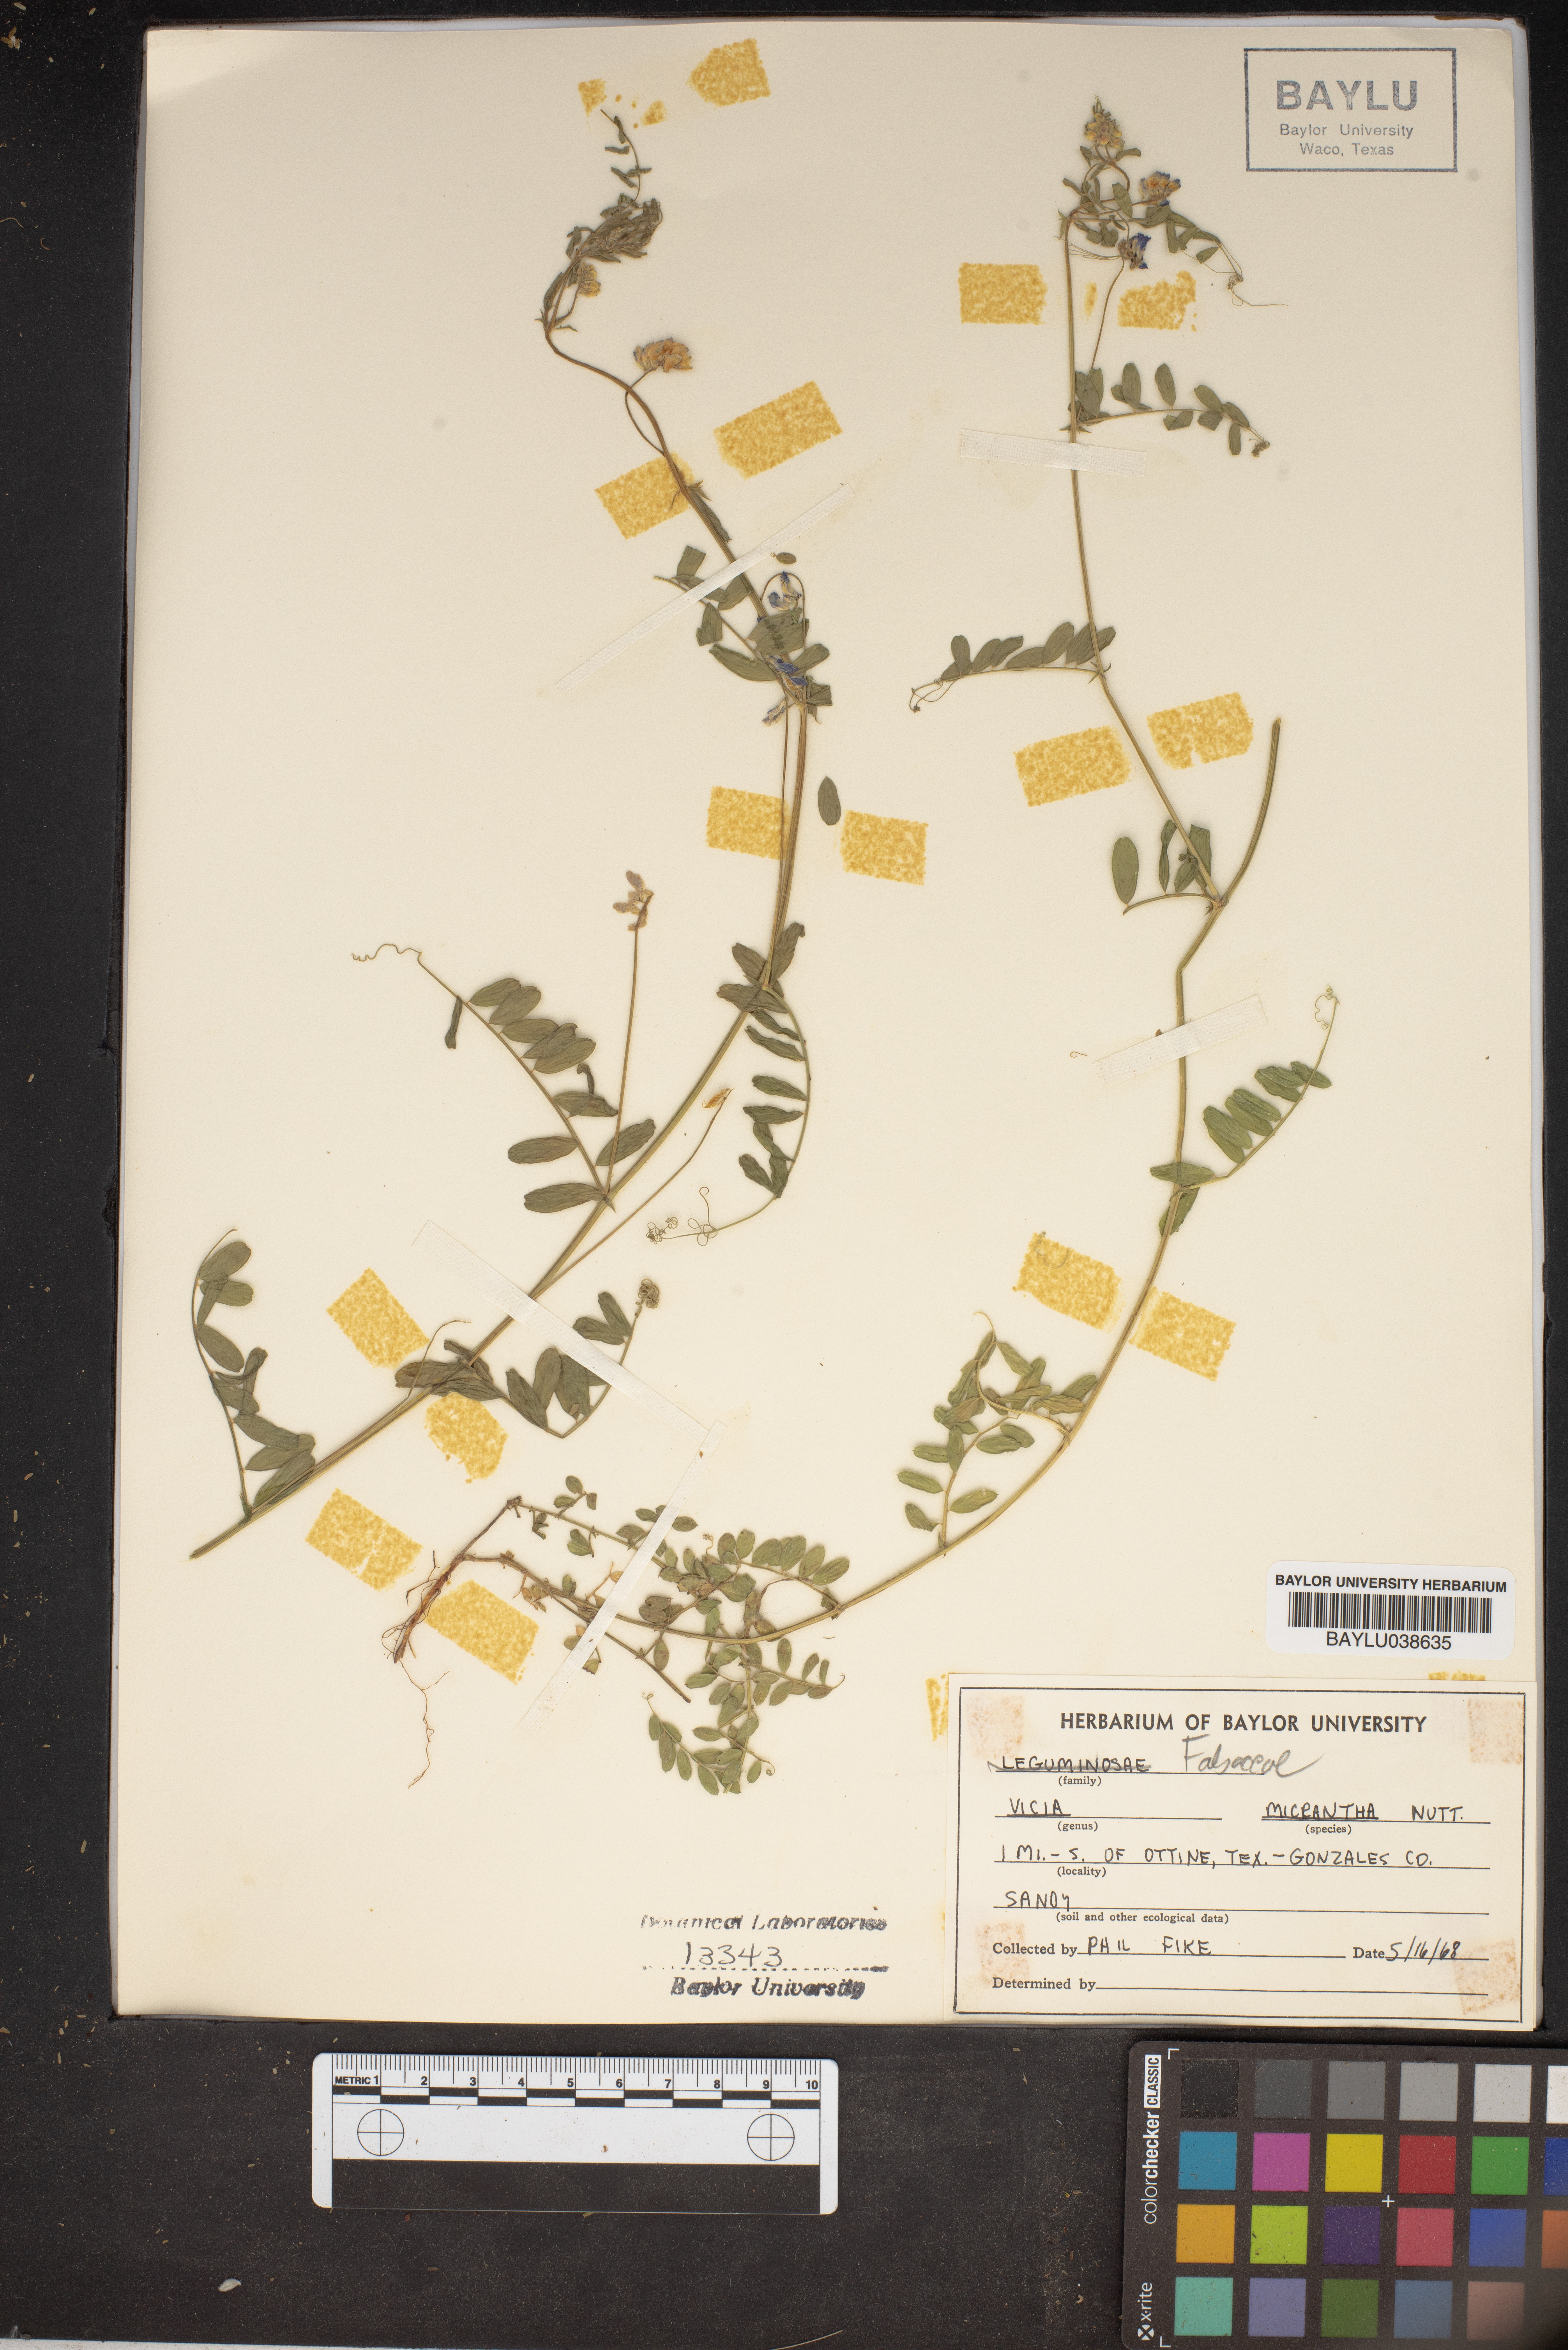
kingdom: Plantae
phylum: Tracheophyta
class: Magnoliopsida
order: Fabales
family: Fabaceae
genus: Vicia
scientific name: Vicia minutiflora
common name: Pygmy-flower vetch
